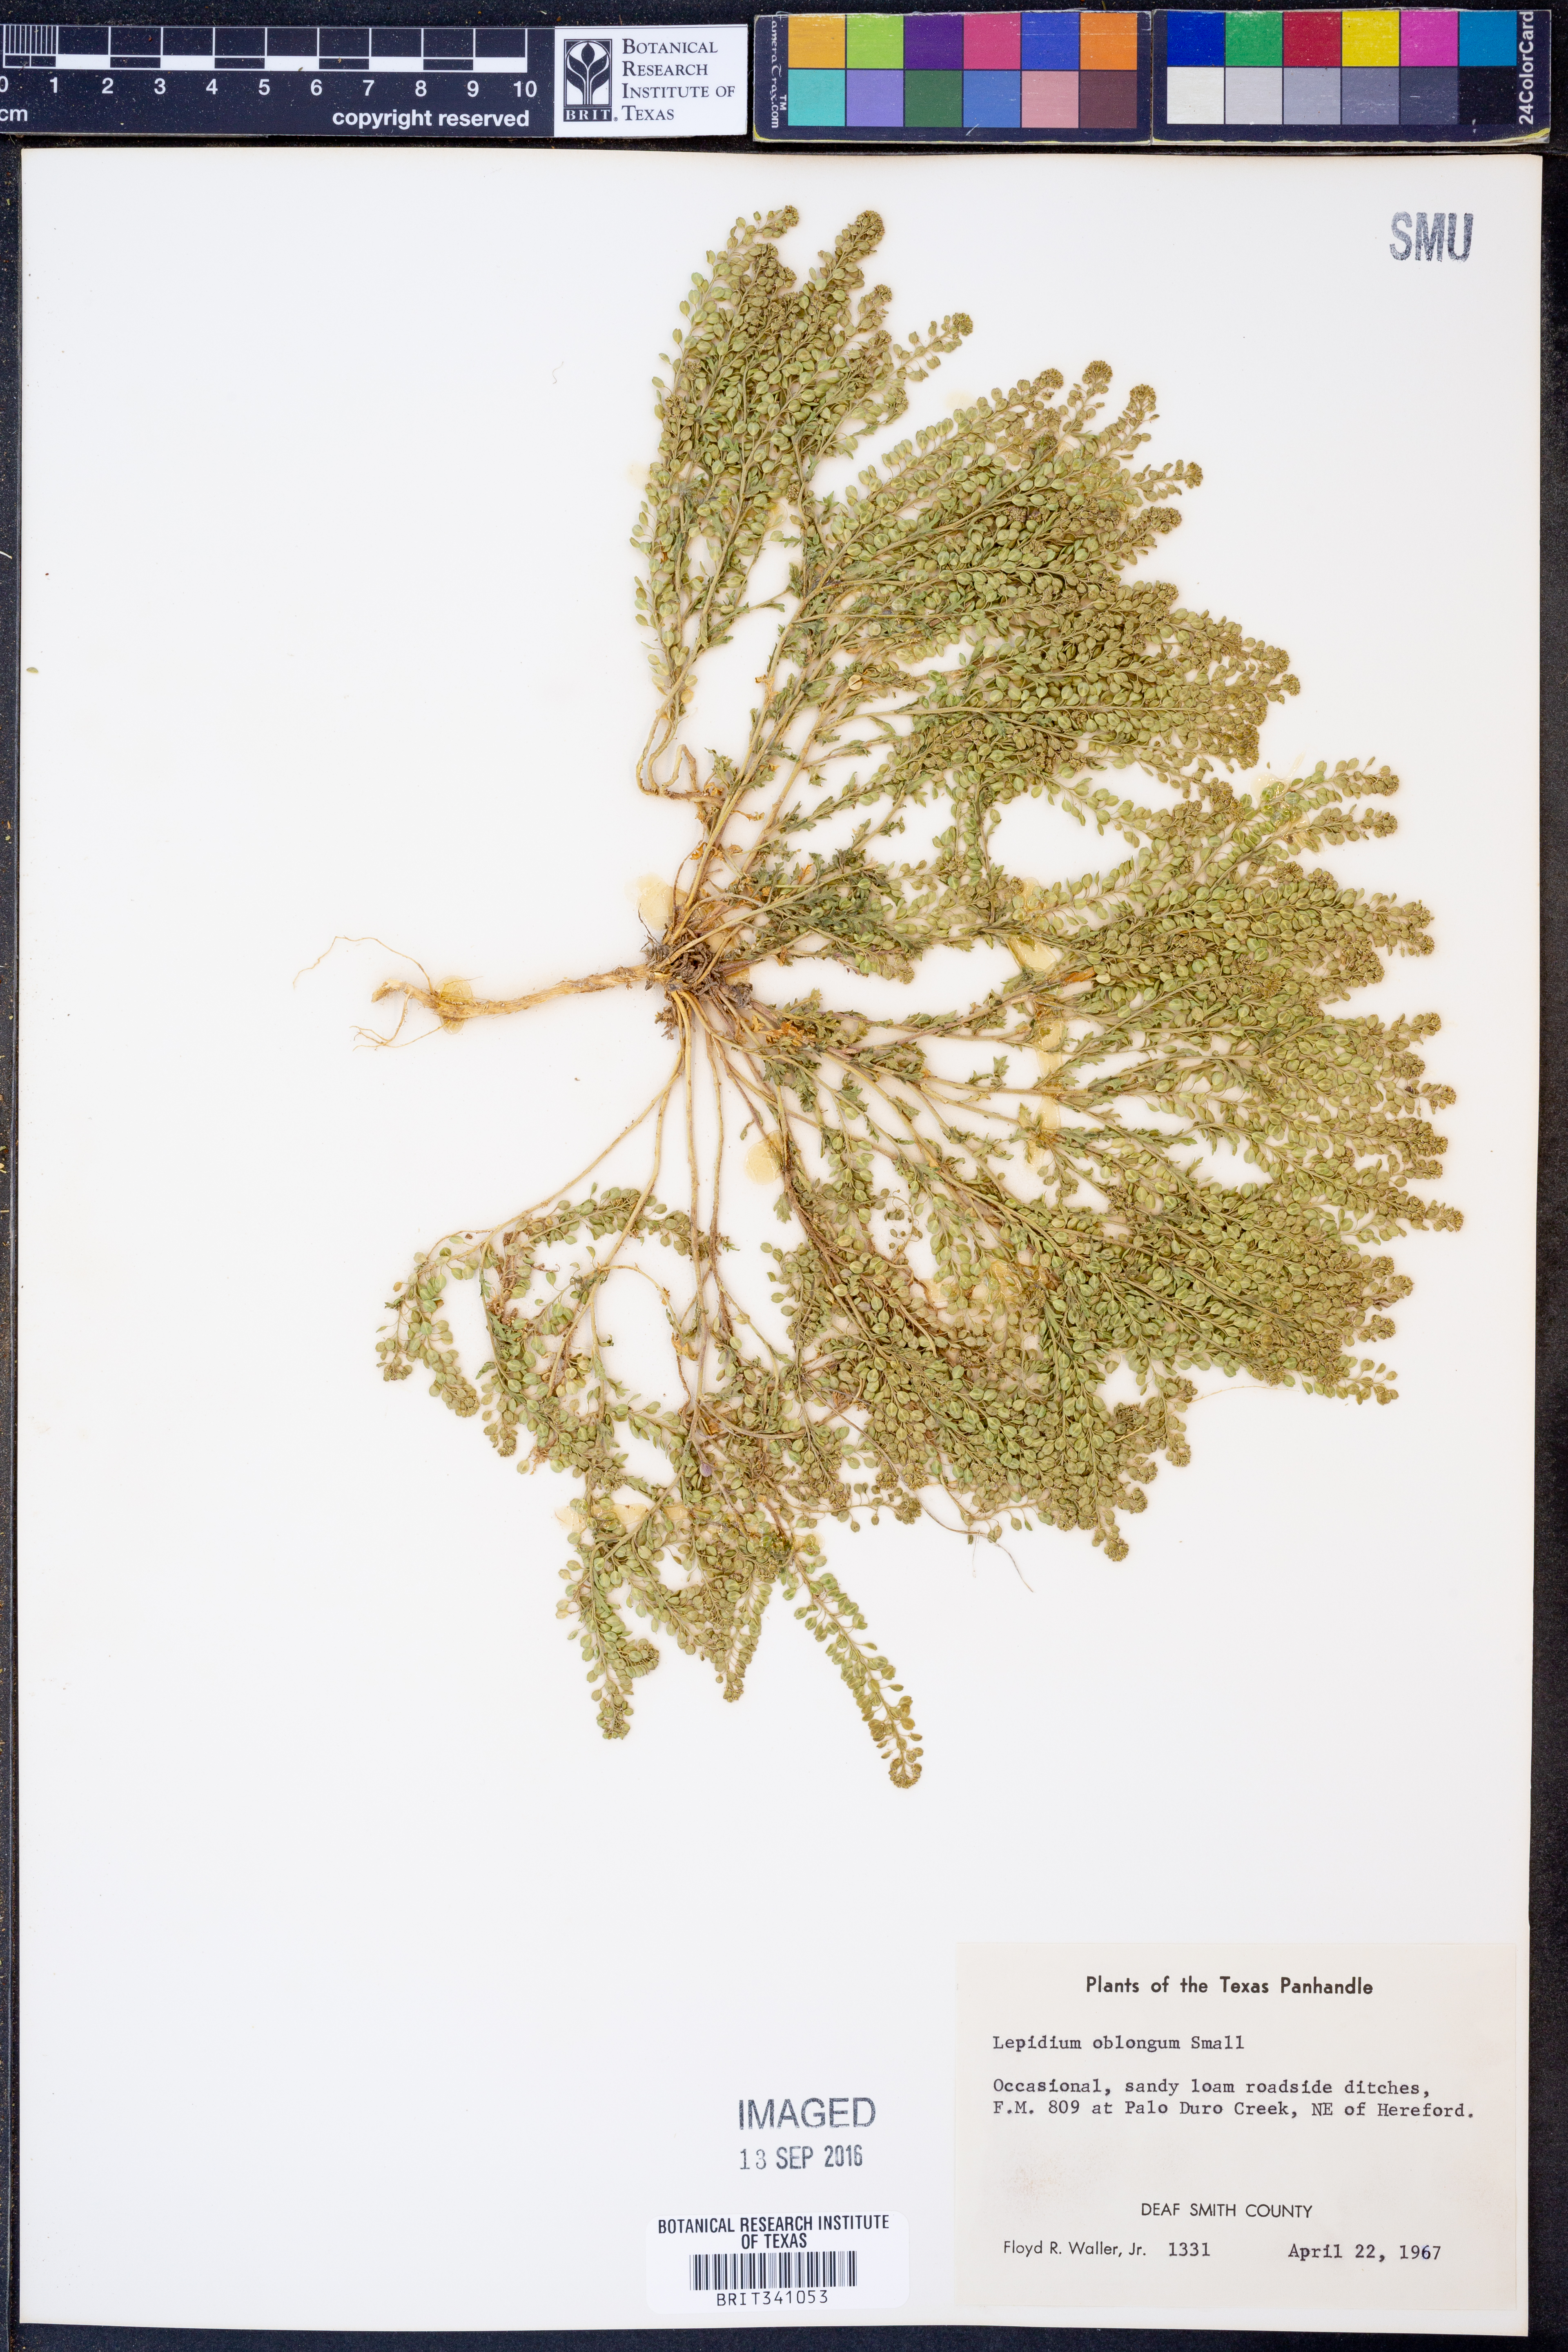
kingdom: Plantae
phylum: Tracheophyta
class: Magnoliopsida
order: Brassicales
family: Brassicaceae
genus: Lepidium
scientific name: Lepidium oblongum
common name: Veiny pepperweed
